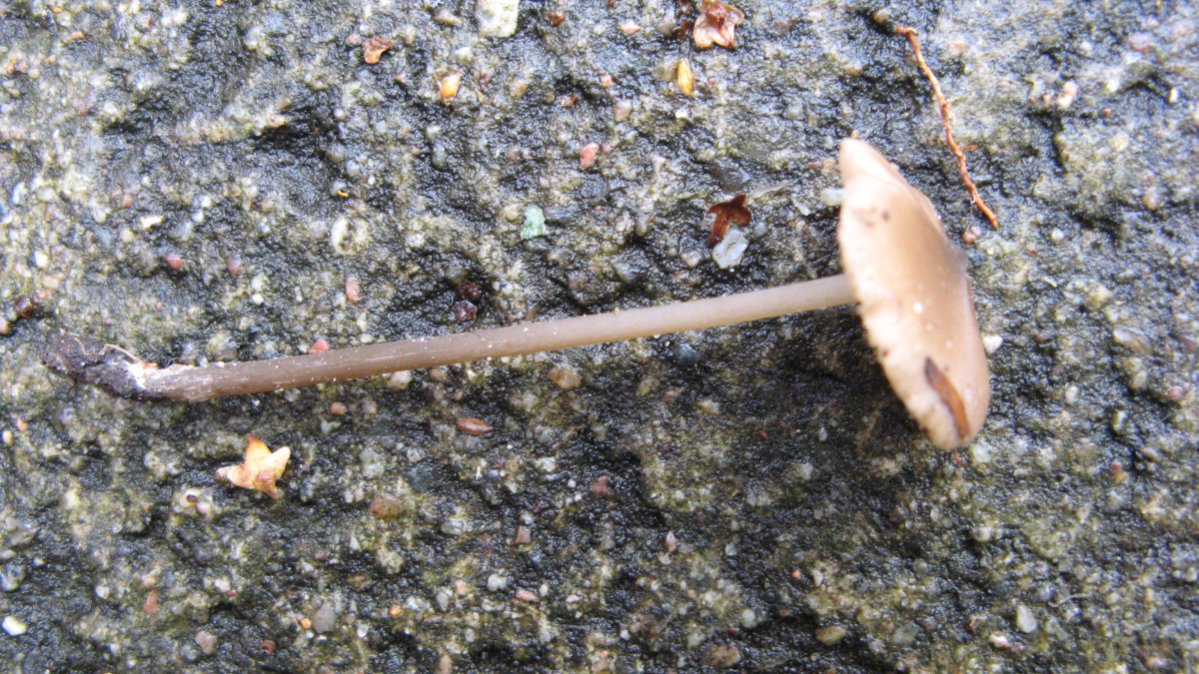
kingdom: Fungi
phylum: Basidiomycota
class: Agaricomycetes
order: Agaricales
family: Entolomataceae
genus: Entoloma
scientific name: Entoloma hebes
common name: krat-rødblad
